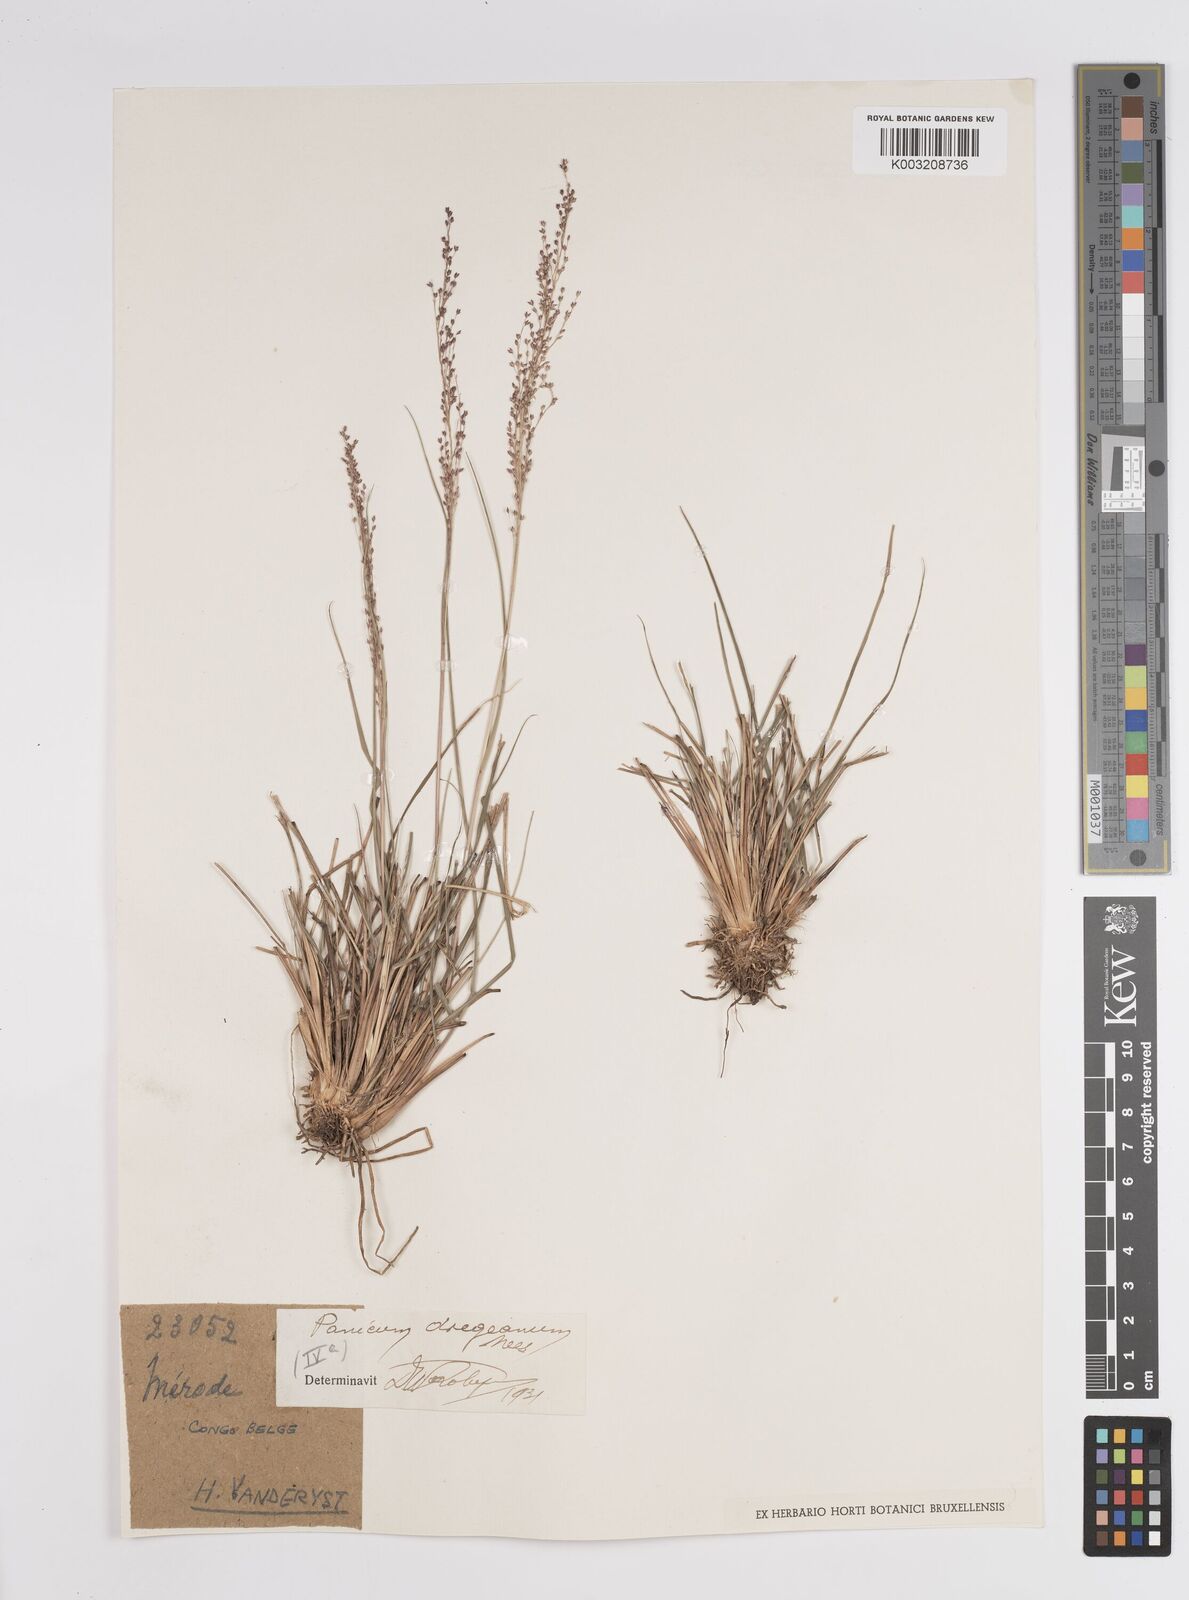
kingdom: Plantae
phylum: Tracheophyta
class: Liliopsida
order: Poales
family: Poaceae
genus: Panicum
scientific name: Panicum dregeanum
